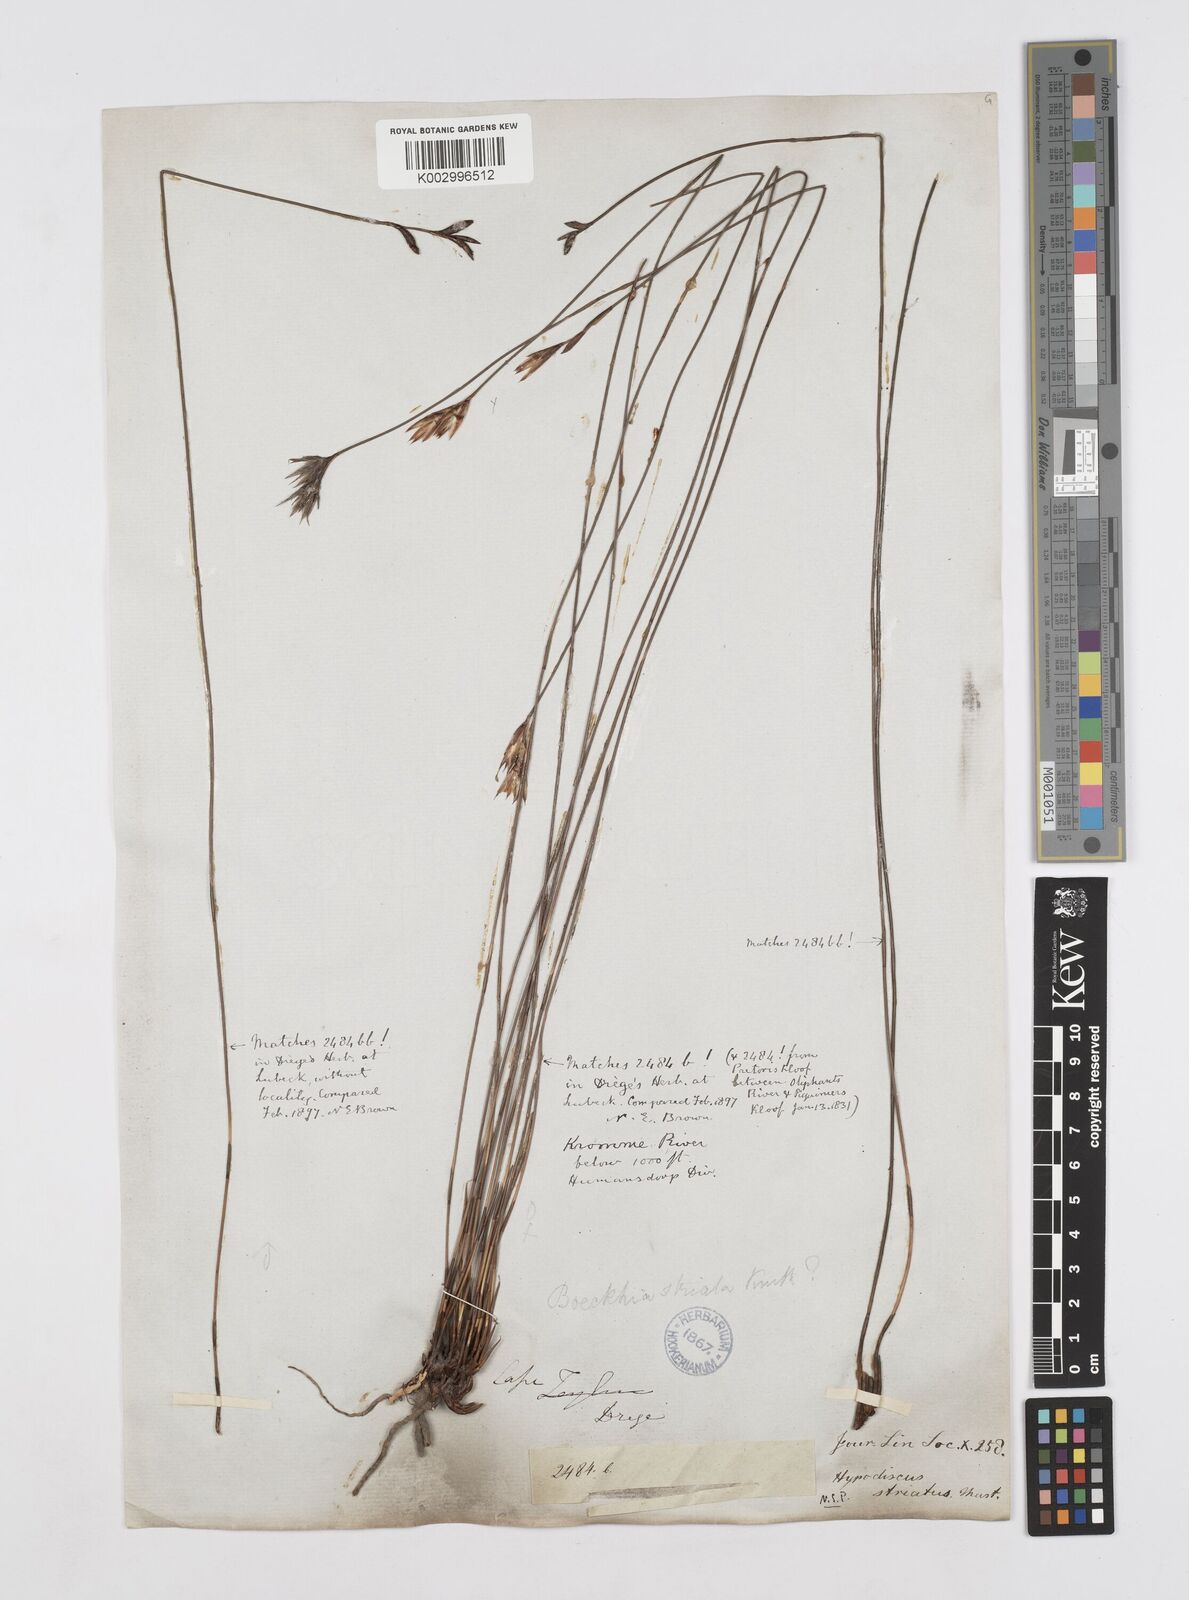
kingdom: Plantae
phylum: Tracheophyta
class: Liliopsida
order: Poales
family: Restionaceae
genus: Hypodiscus
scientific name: Hypodiscus striatus
